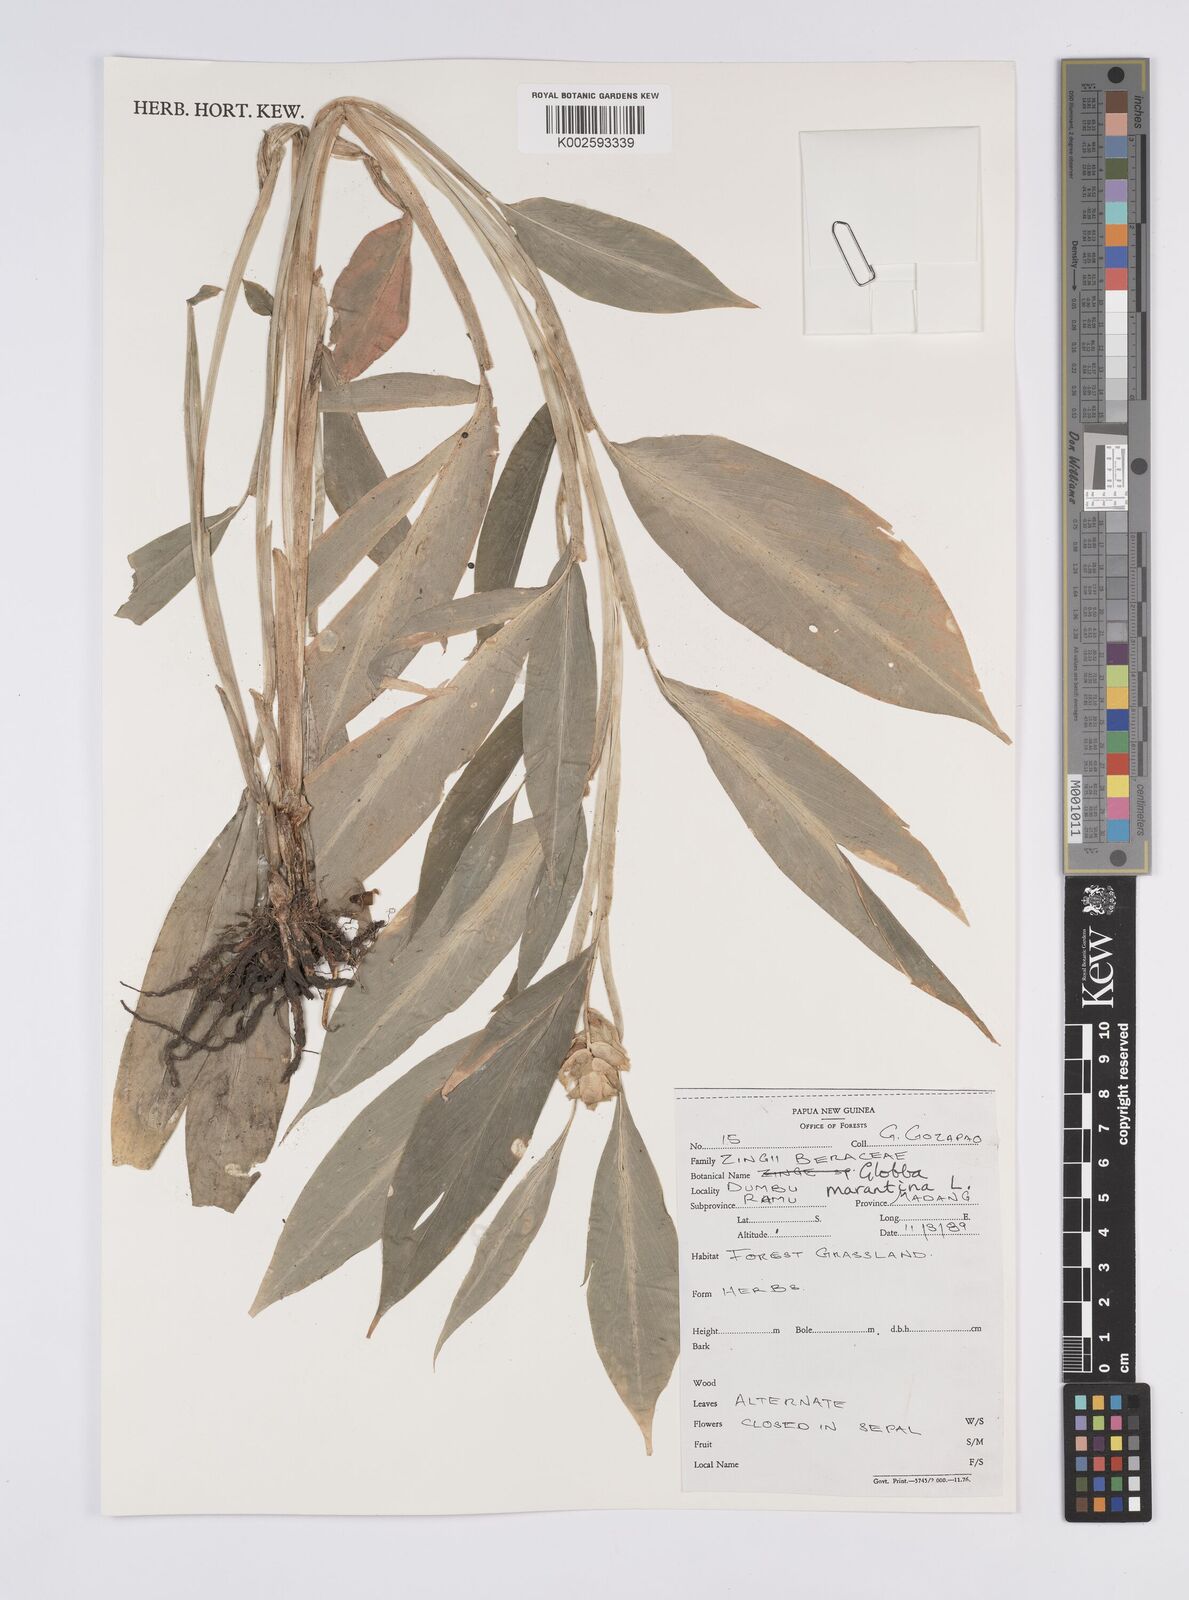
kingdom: Plantae
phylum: Tracheophyta
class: Liliopsida
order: Zingiberales
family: Zingiberaceae
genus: Globba
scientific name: Globba marantina
